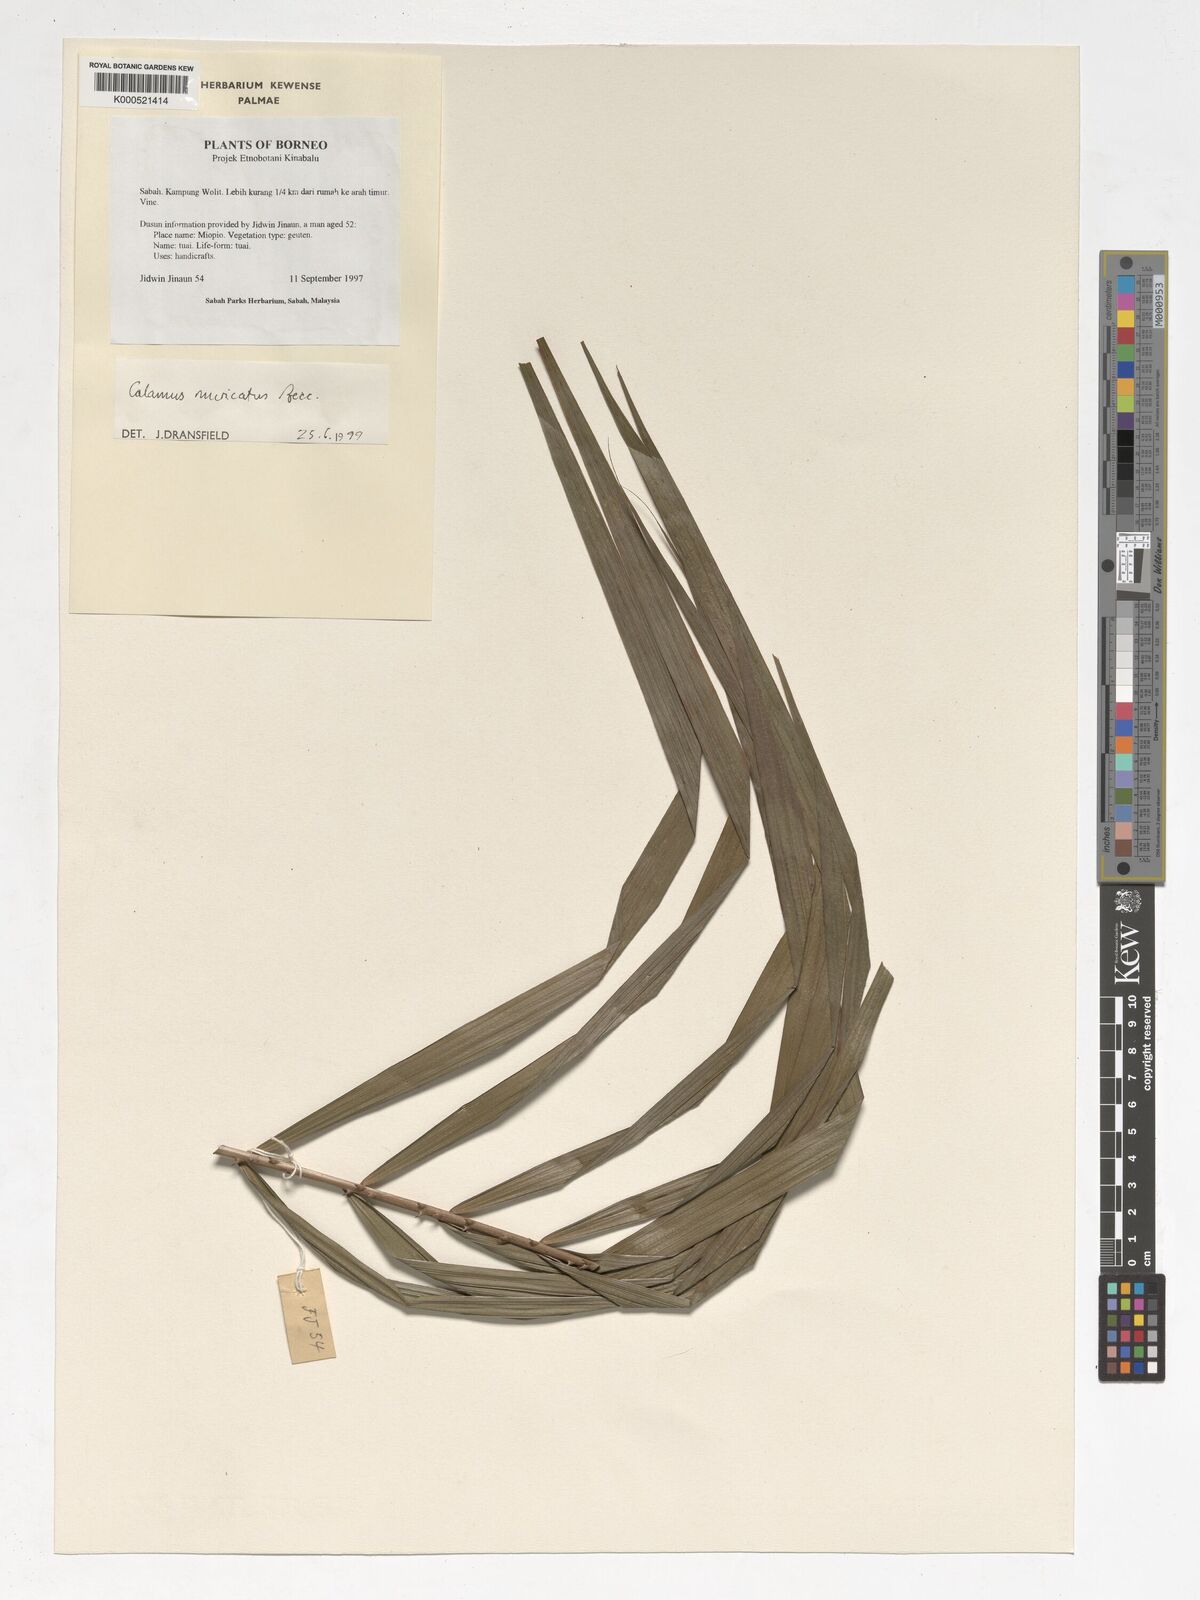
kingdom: Plantae
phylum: Tracheophyta
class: Liliopsida
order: Arecales
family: Arecaceae
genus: Calamus
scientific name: Calamus muricatus
